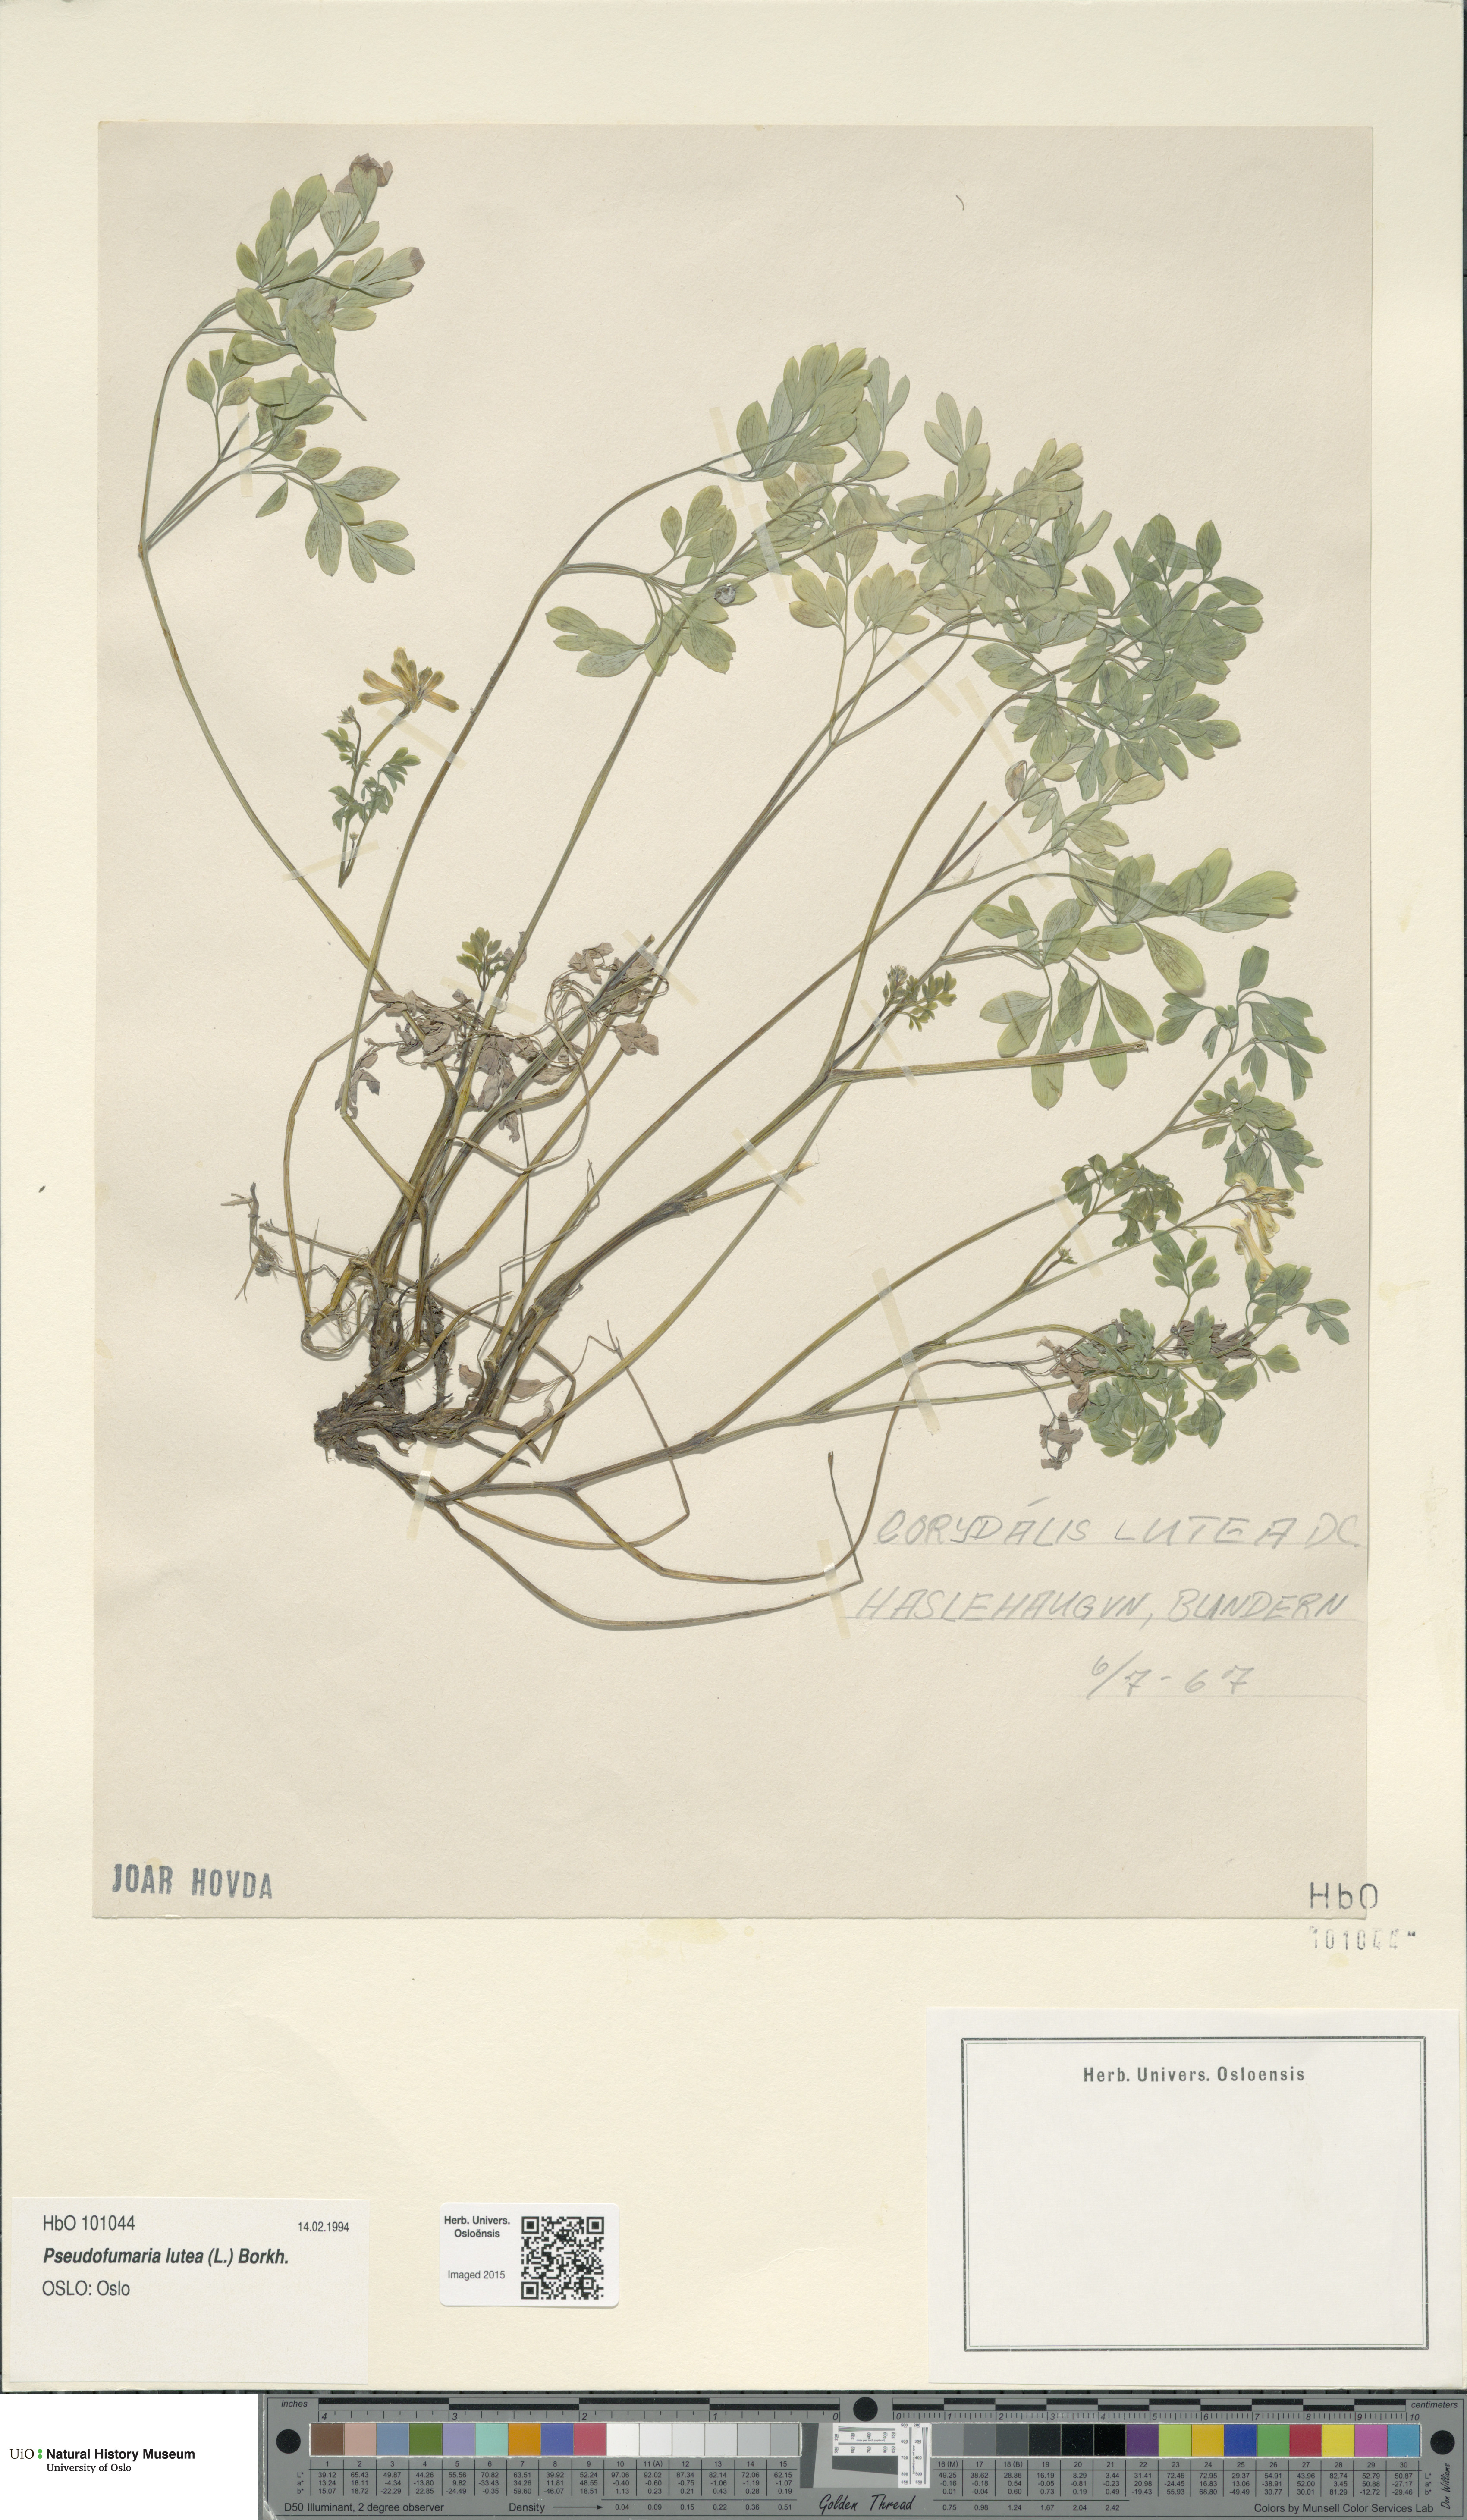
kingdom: Plantae
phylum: Tracheophyta
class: Magnoliopsida
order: Ranunculales
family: Papaveraceae
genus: Pseudofumaria
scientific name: Pseudofumaria lutea
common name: Yellow corydalis
